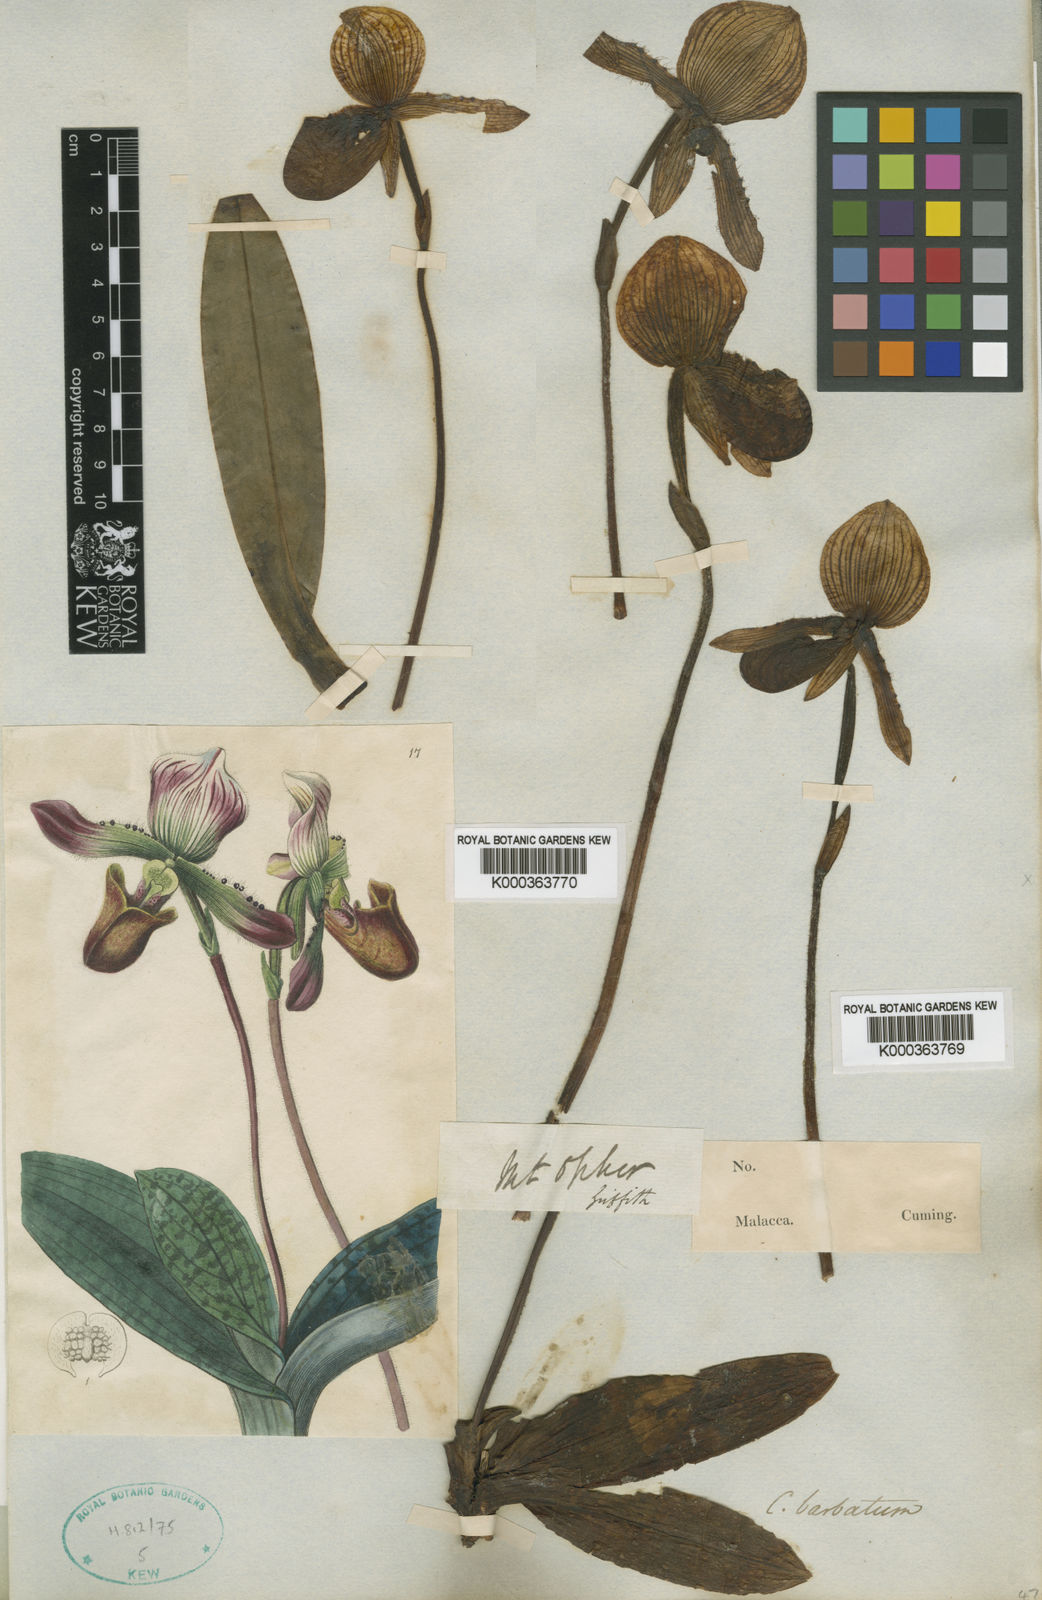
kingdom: Plantae
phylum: Tracheophyta
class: Liliopsida
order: Asparagales
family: Orchidaceae
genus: Paphiopedilum
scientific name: Paphiopedilum barbatum
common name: Bearded paphiopedilum
